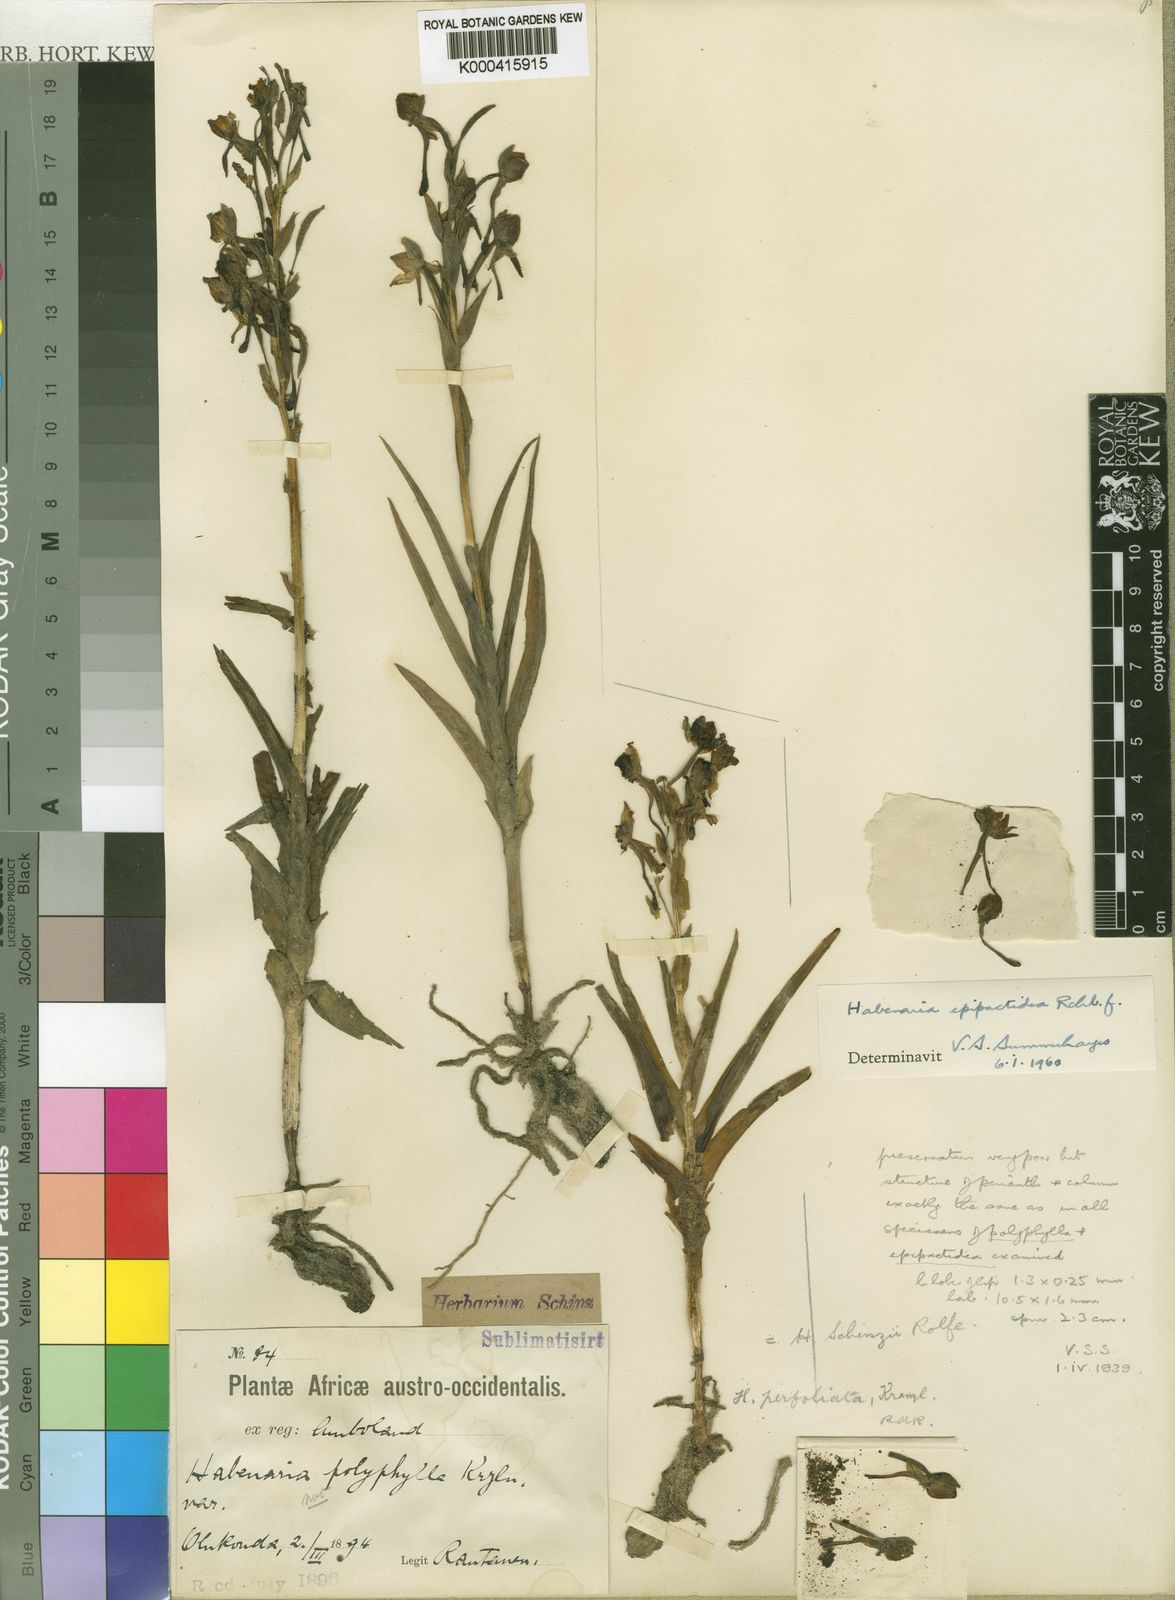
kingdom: Plantae
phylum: Tracheophyta
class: Liliopsida
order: Asparagales
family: Orchidaceae
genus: Habenaria
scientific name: Habenaria epipactidea
